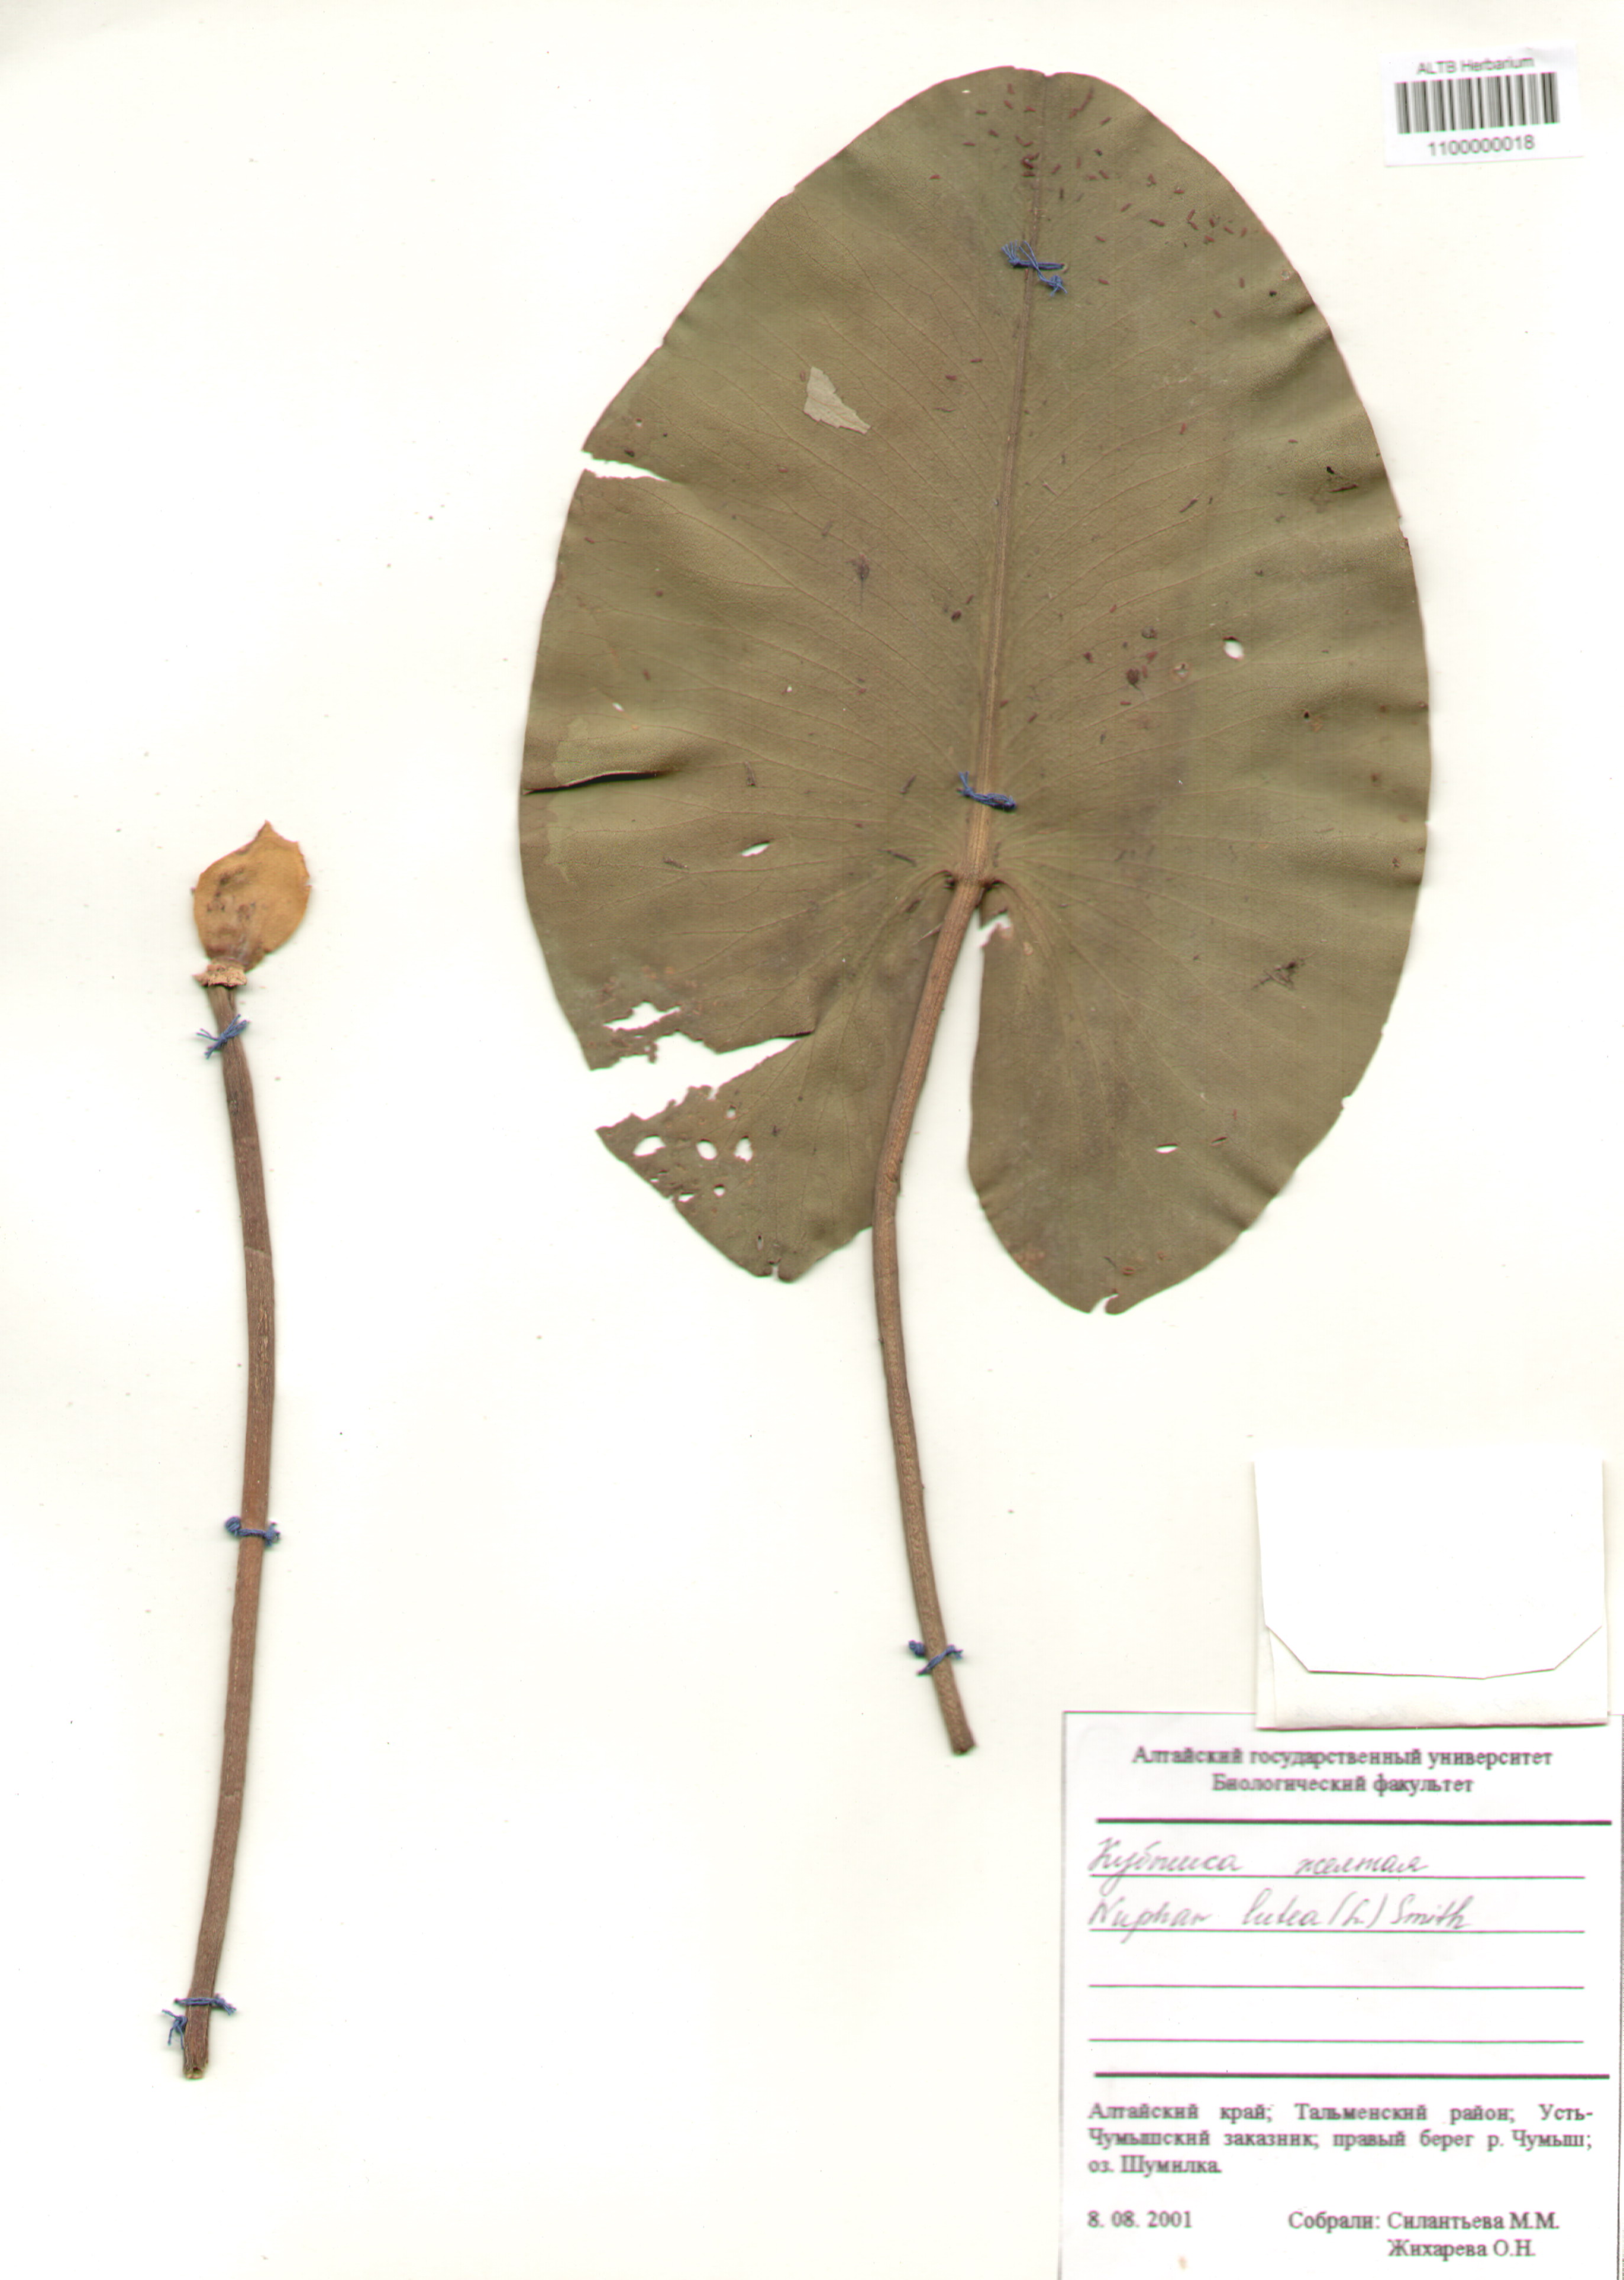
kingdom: Plantae
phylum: Tracheophyta
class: Magnoliopsida
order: Nymphaeales
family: Nymphaeaceae
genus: Nuphar
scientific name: Nuphar lutea
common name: Yellow water-lily
